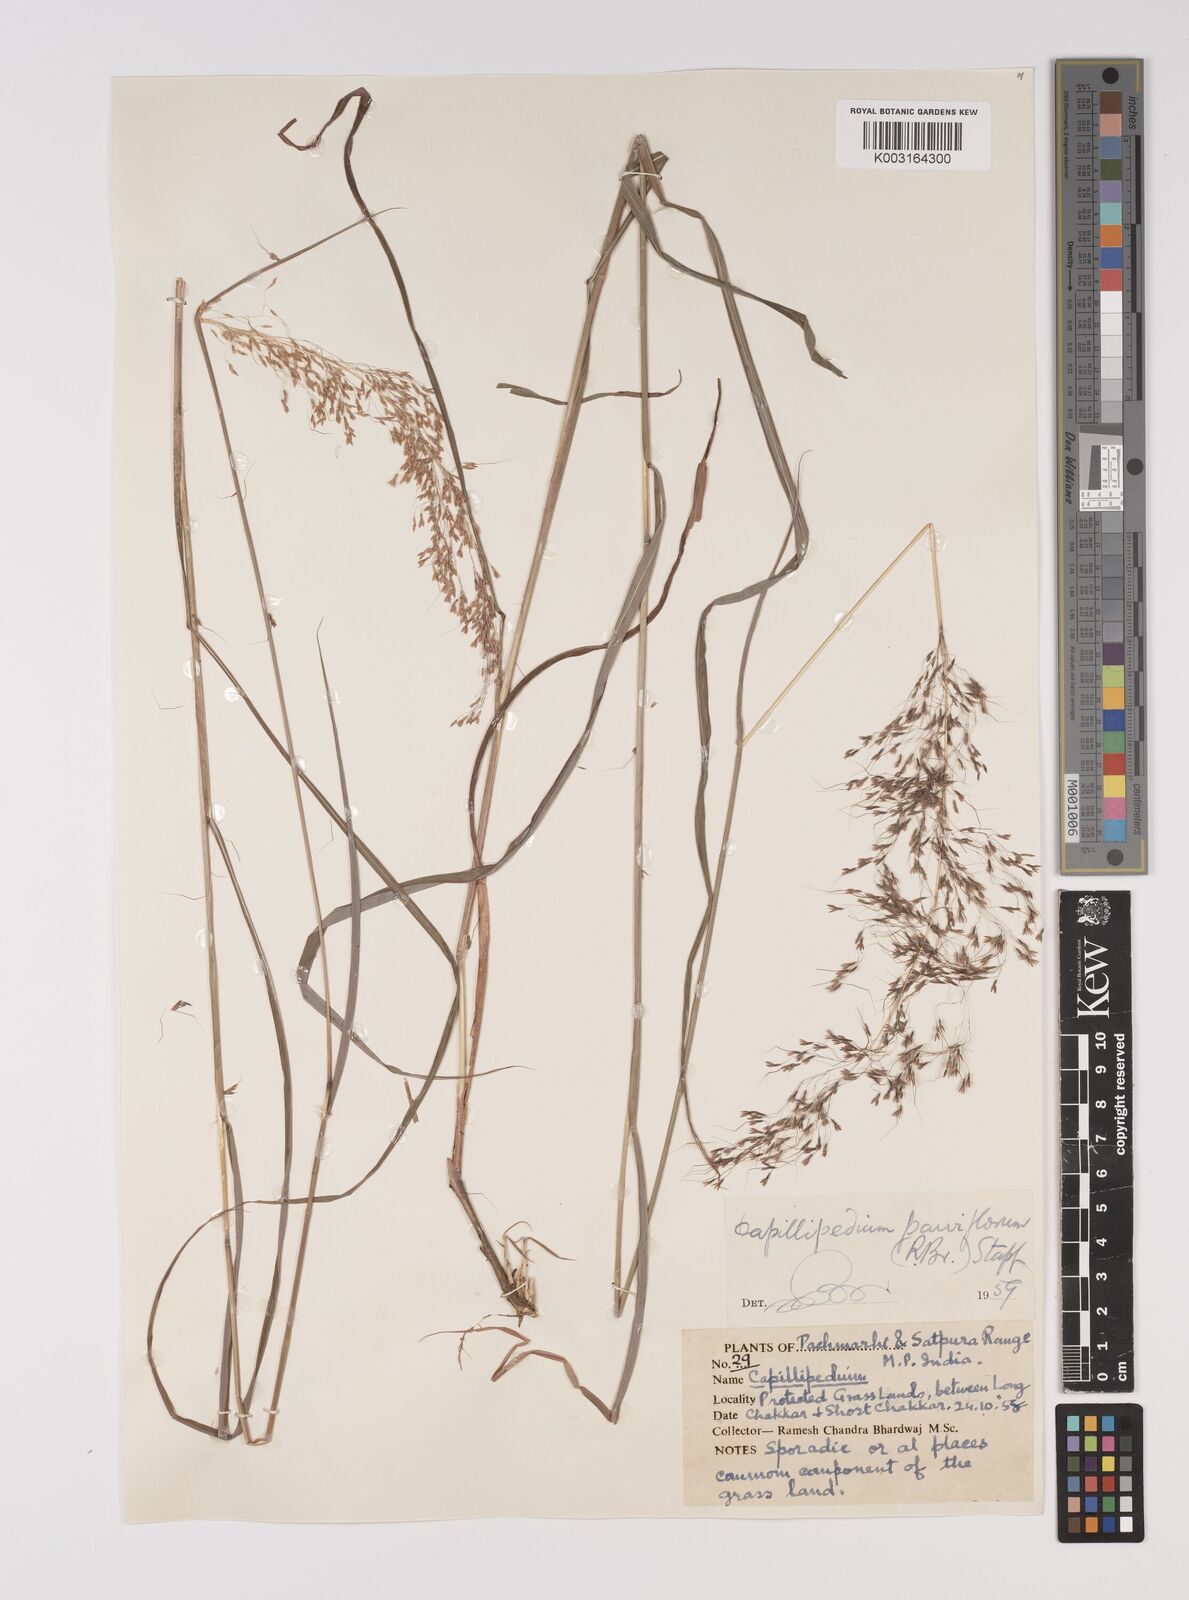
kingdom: Plantae
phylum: Tracheophyta
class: Liliopsida
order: Poales
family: Poaceae
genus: Capillipedium
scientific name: Capillipedium parviflorum
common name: Golden-beard
